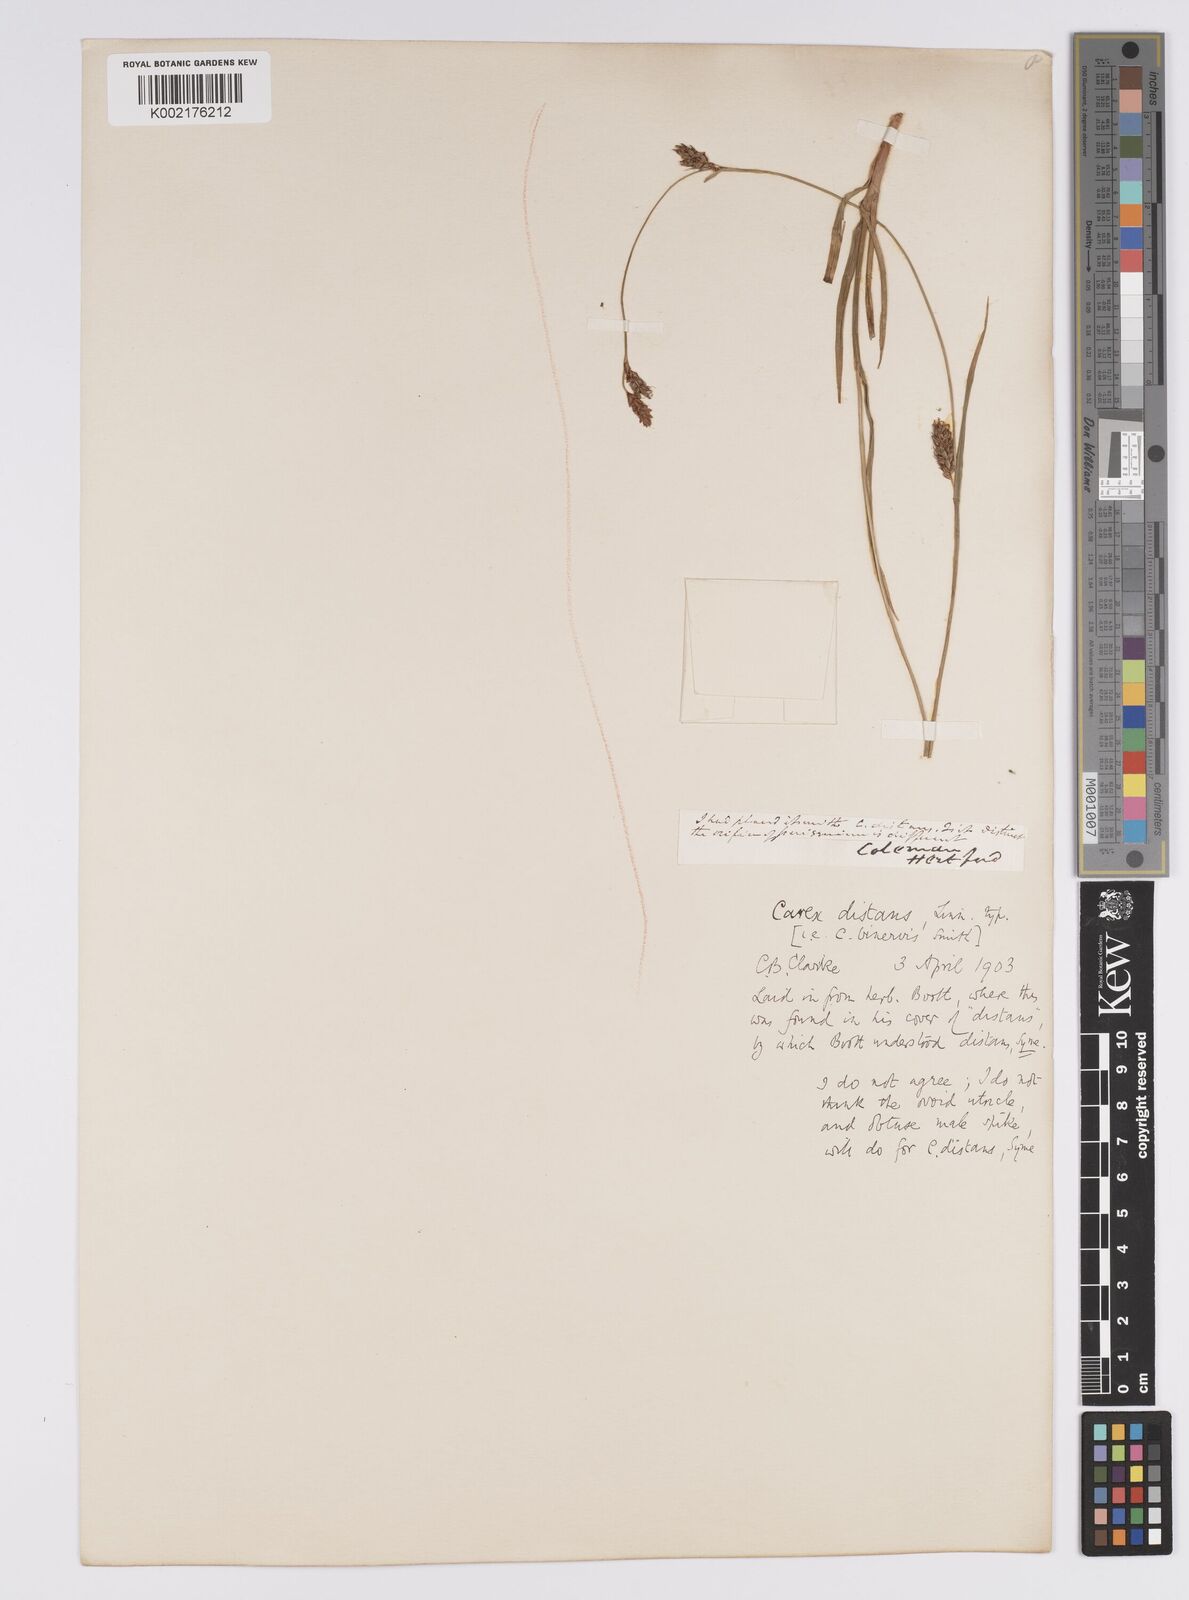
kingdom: Plantae
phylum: Tracheophyta
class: Liliopsida
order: Poales
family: Cyperaceae
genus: Carex
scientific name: Carex distans
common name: Distant sedge
